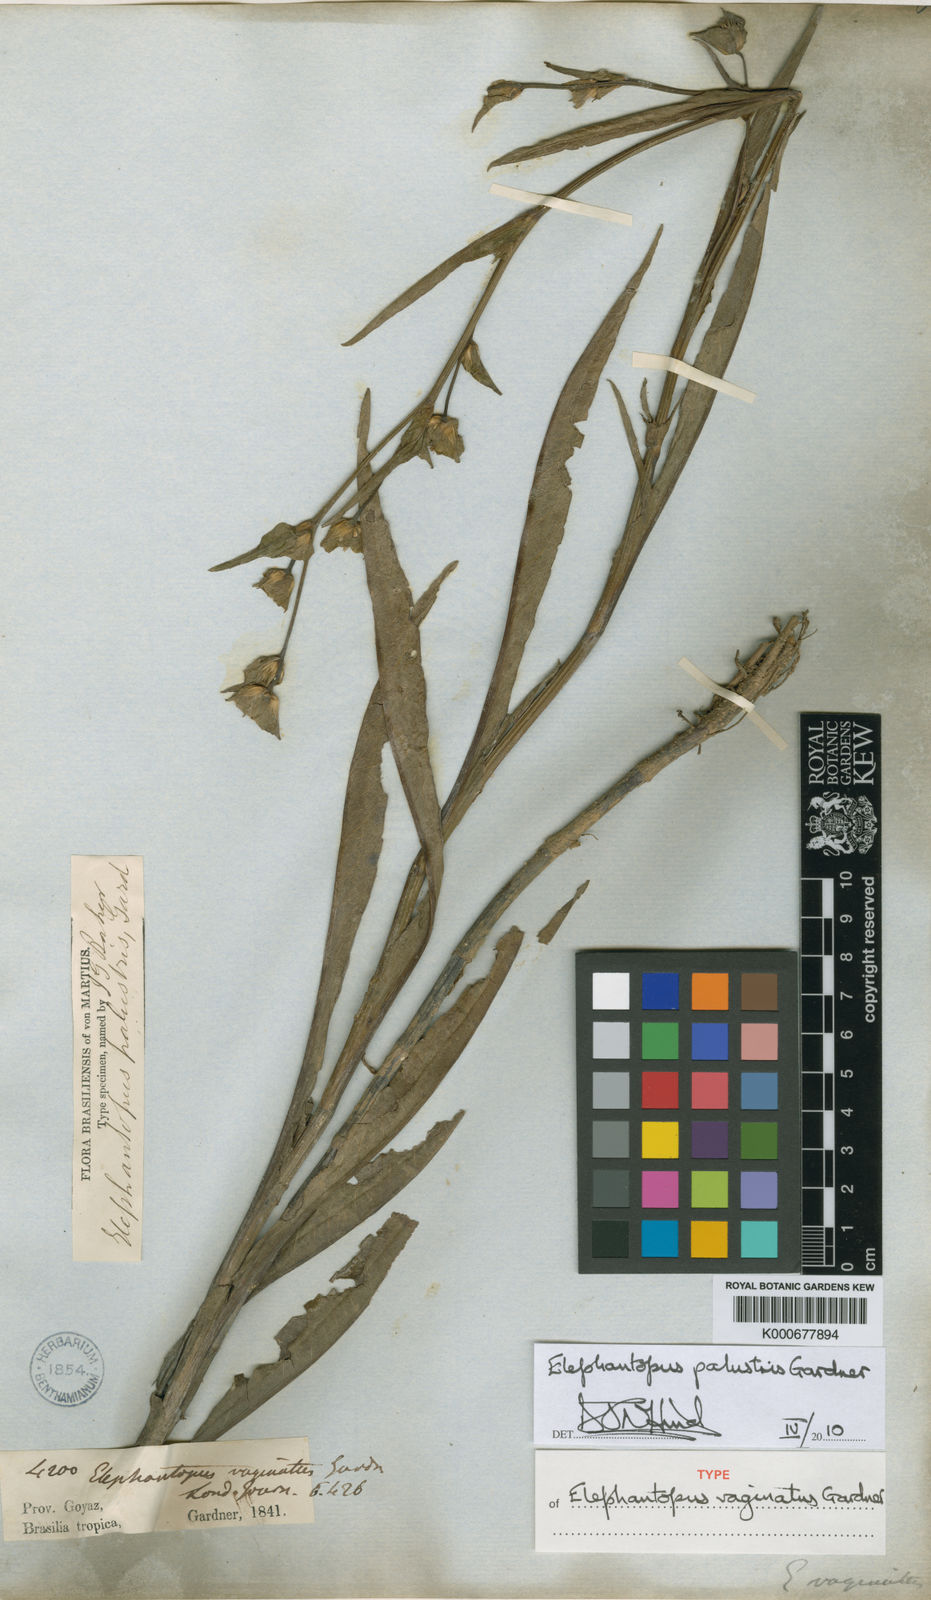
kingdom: Plantae
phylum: Tracheophyta
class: Magnoliopsida
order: Asterales
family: Asteraceae
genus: Elephantopus
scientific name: Elephantopus palustris
